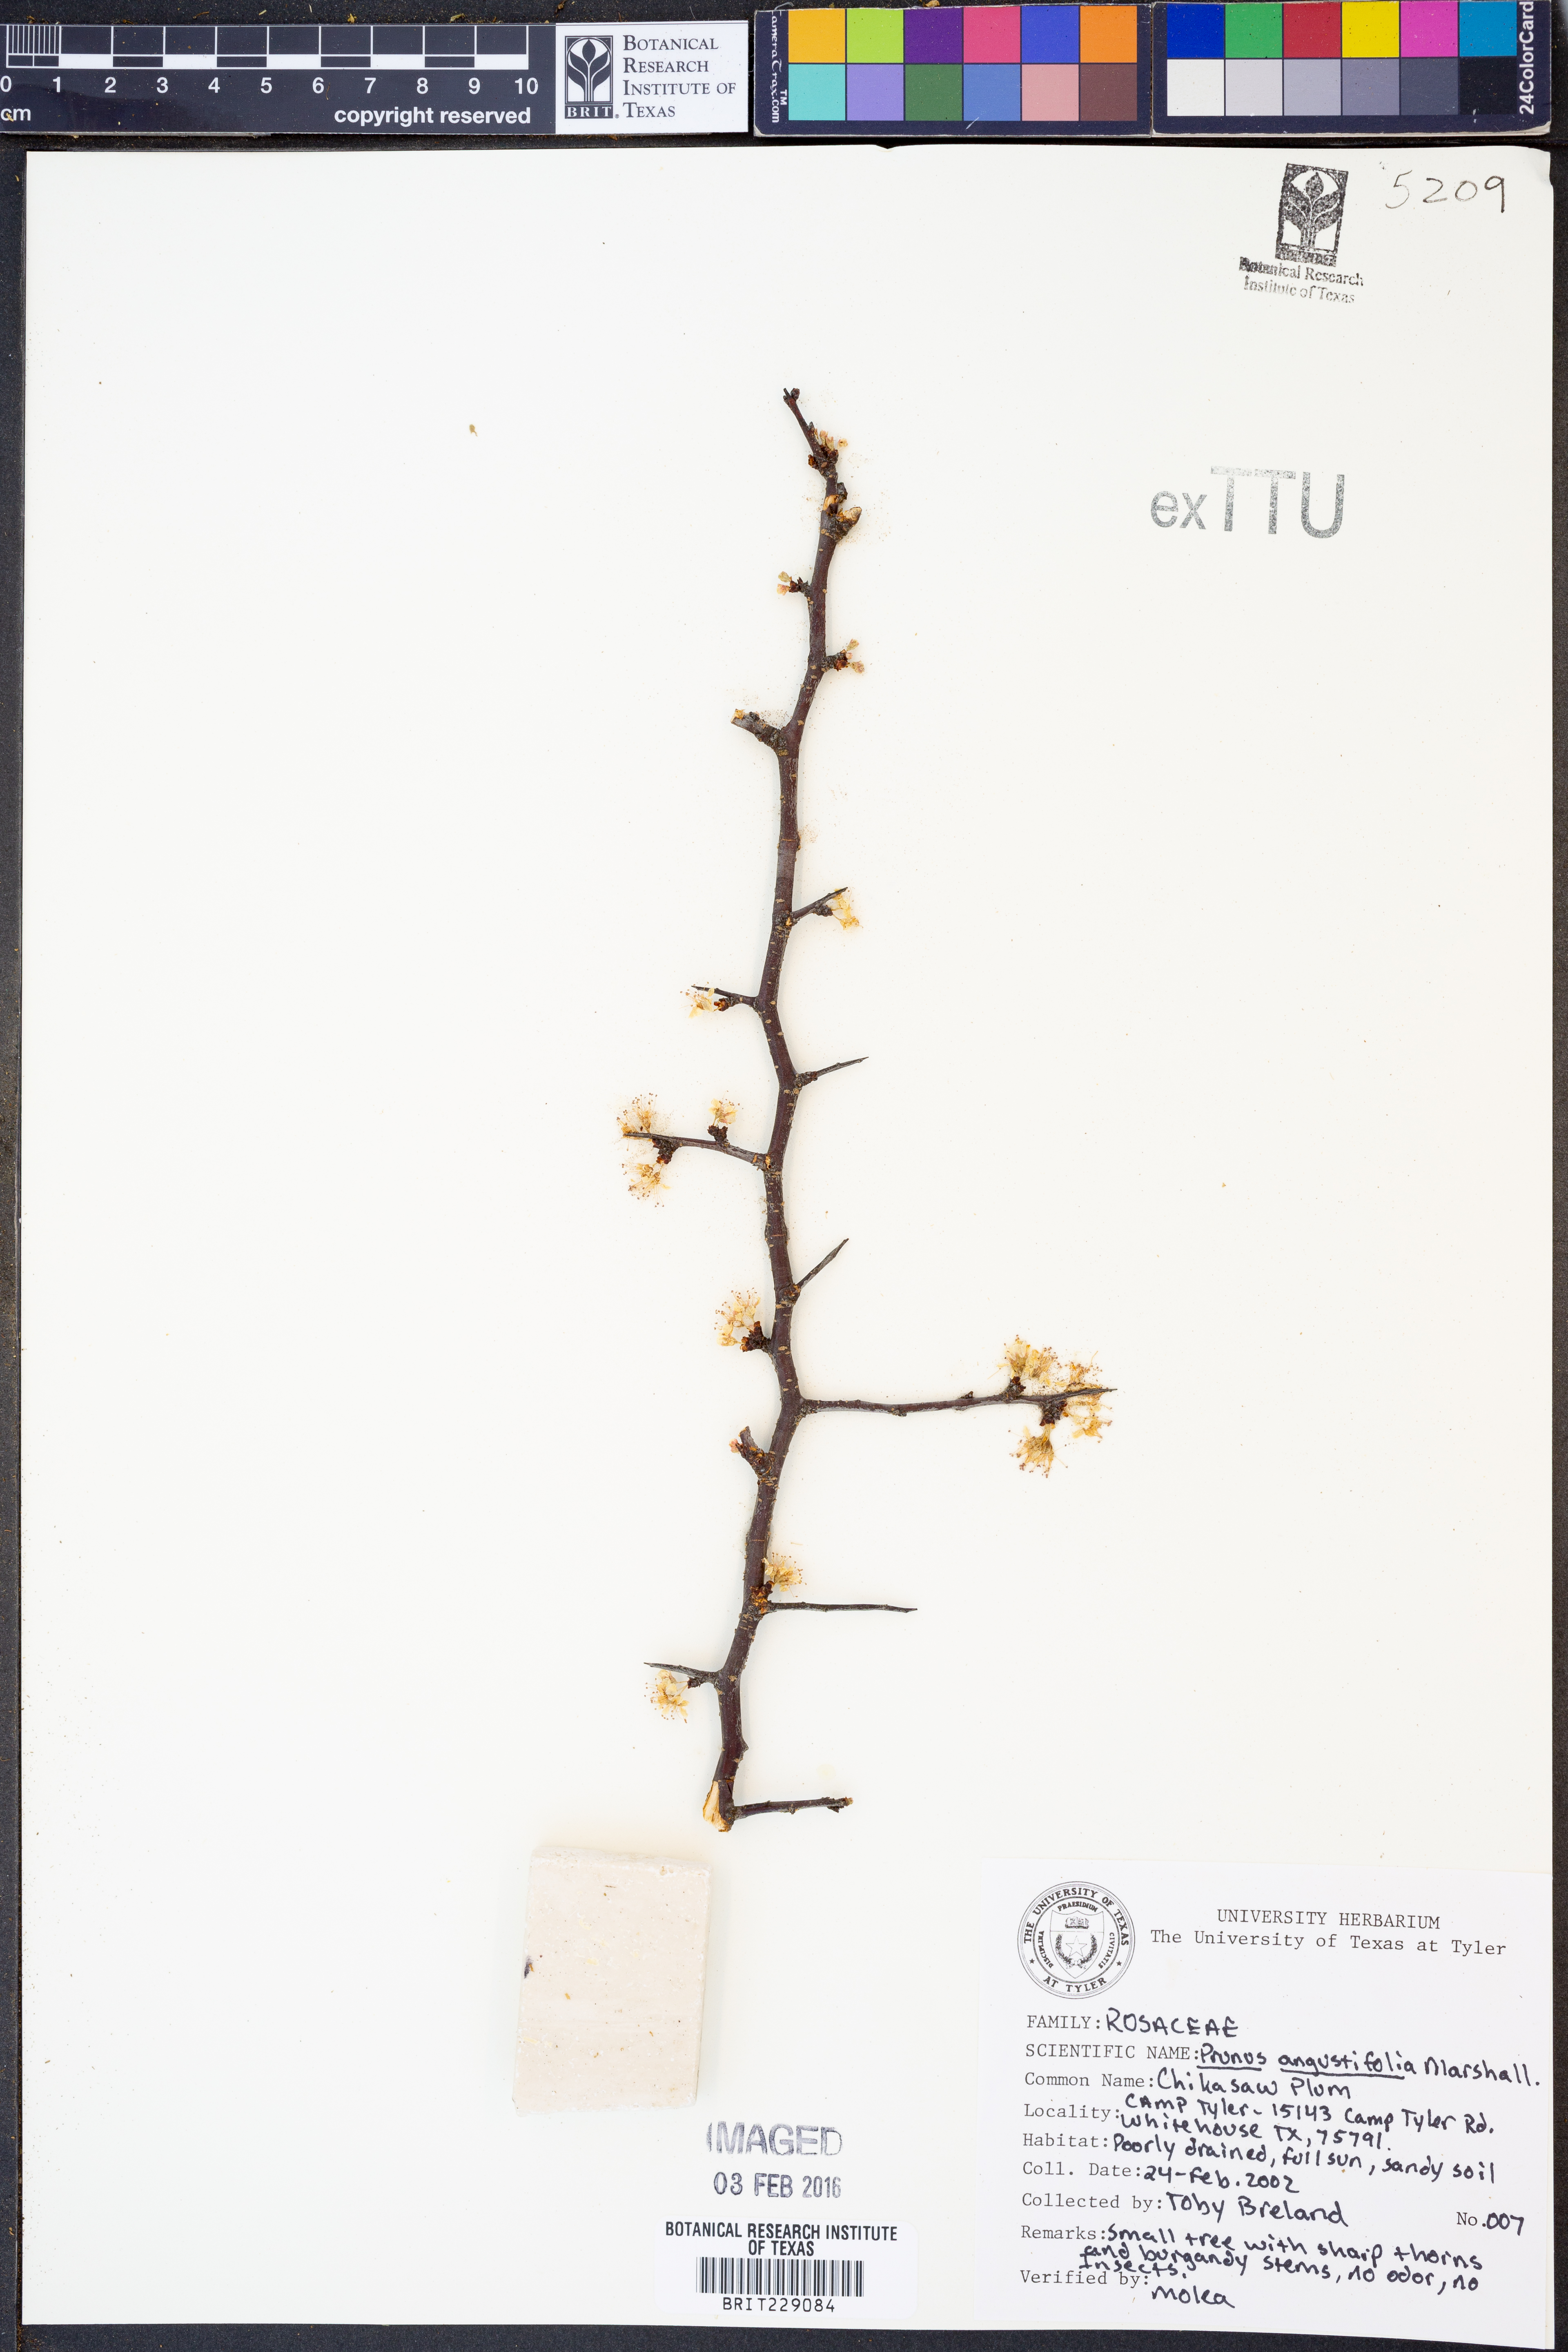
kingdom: Plantae
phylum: Tracheophyta
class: Magnoliopsida
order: Rosales
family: Rosaceae
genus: Prunus
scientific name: Prunus angustifolia
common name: Cherokee plum
